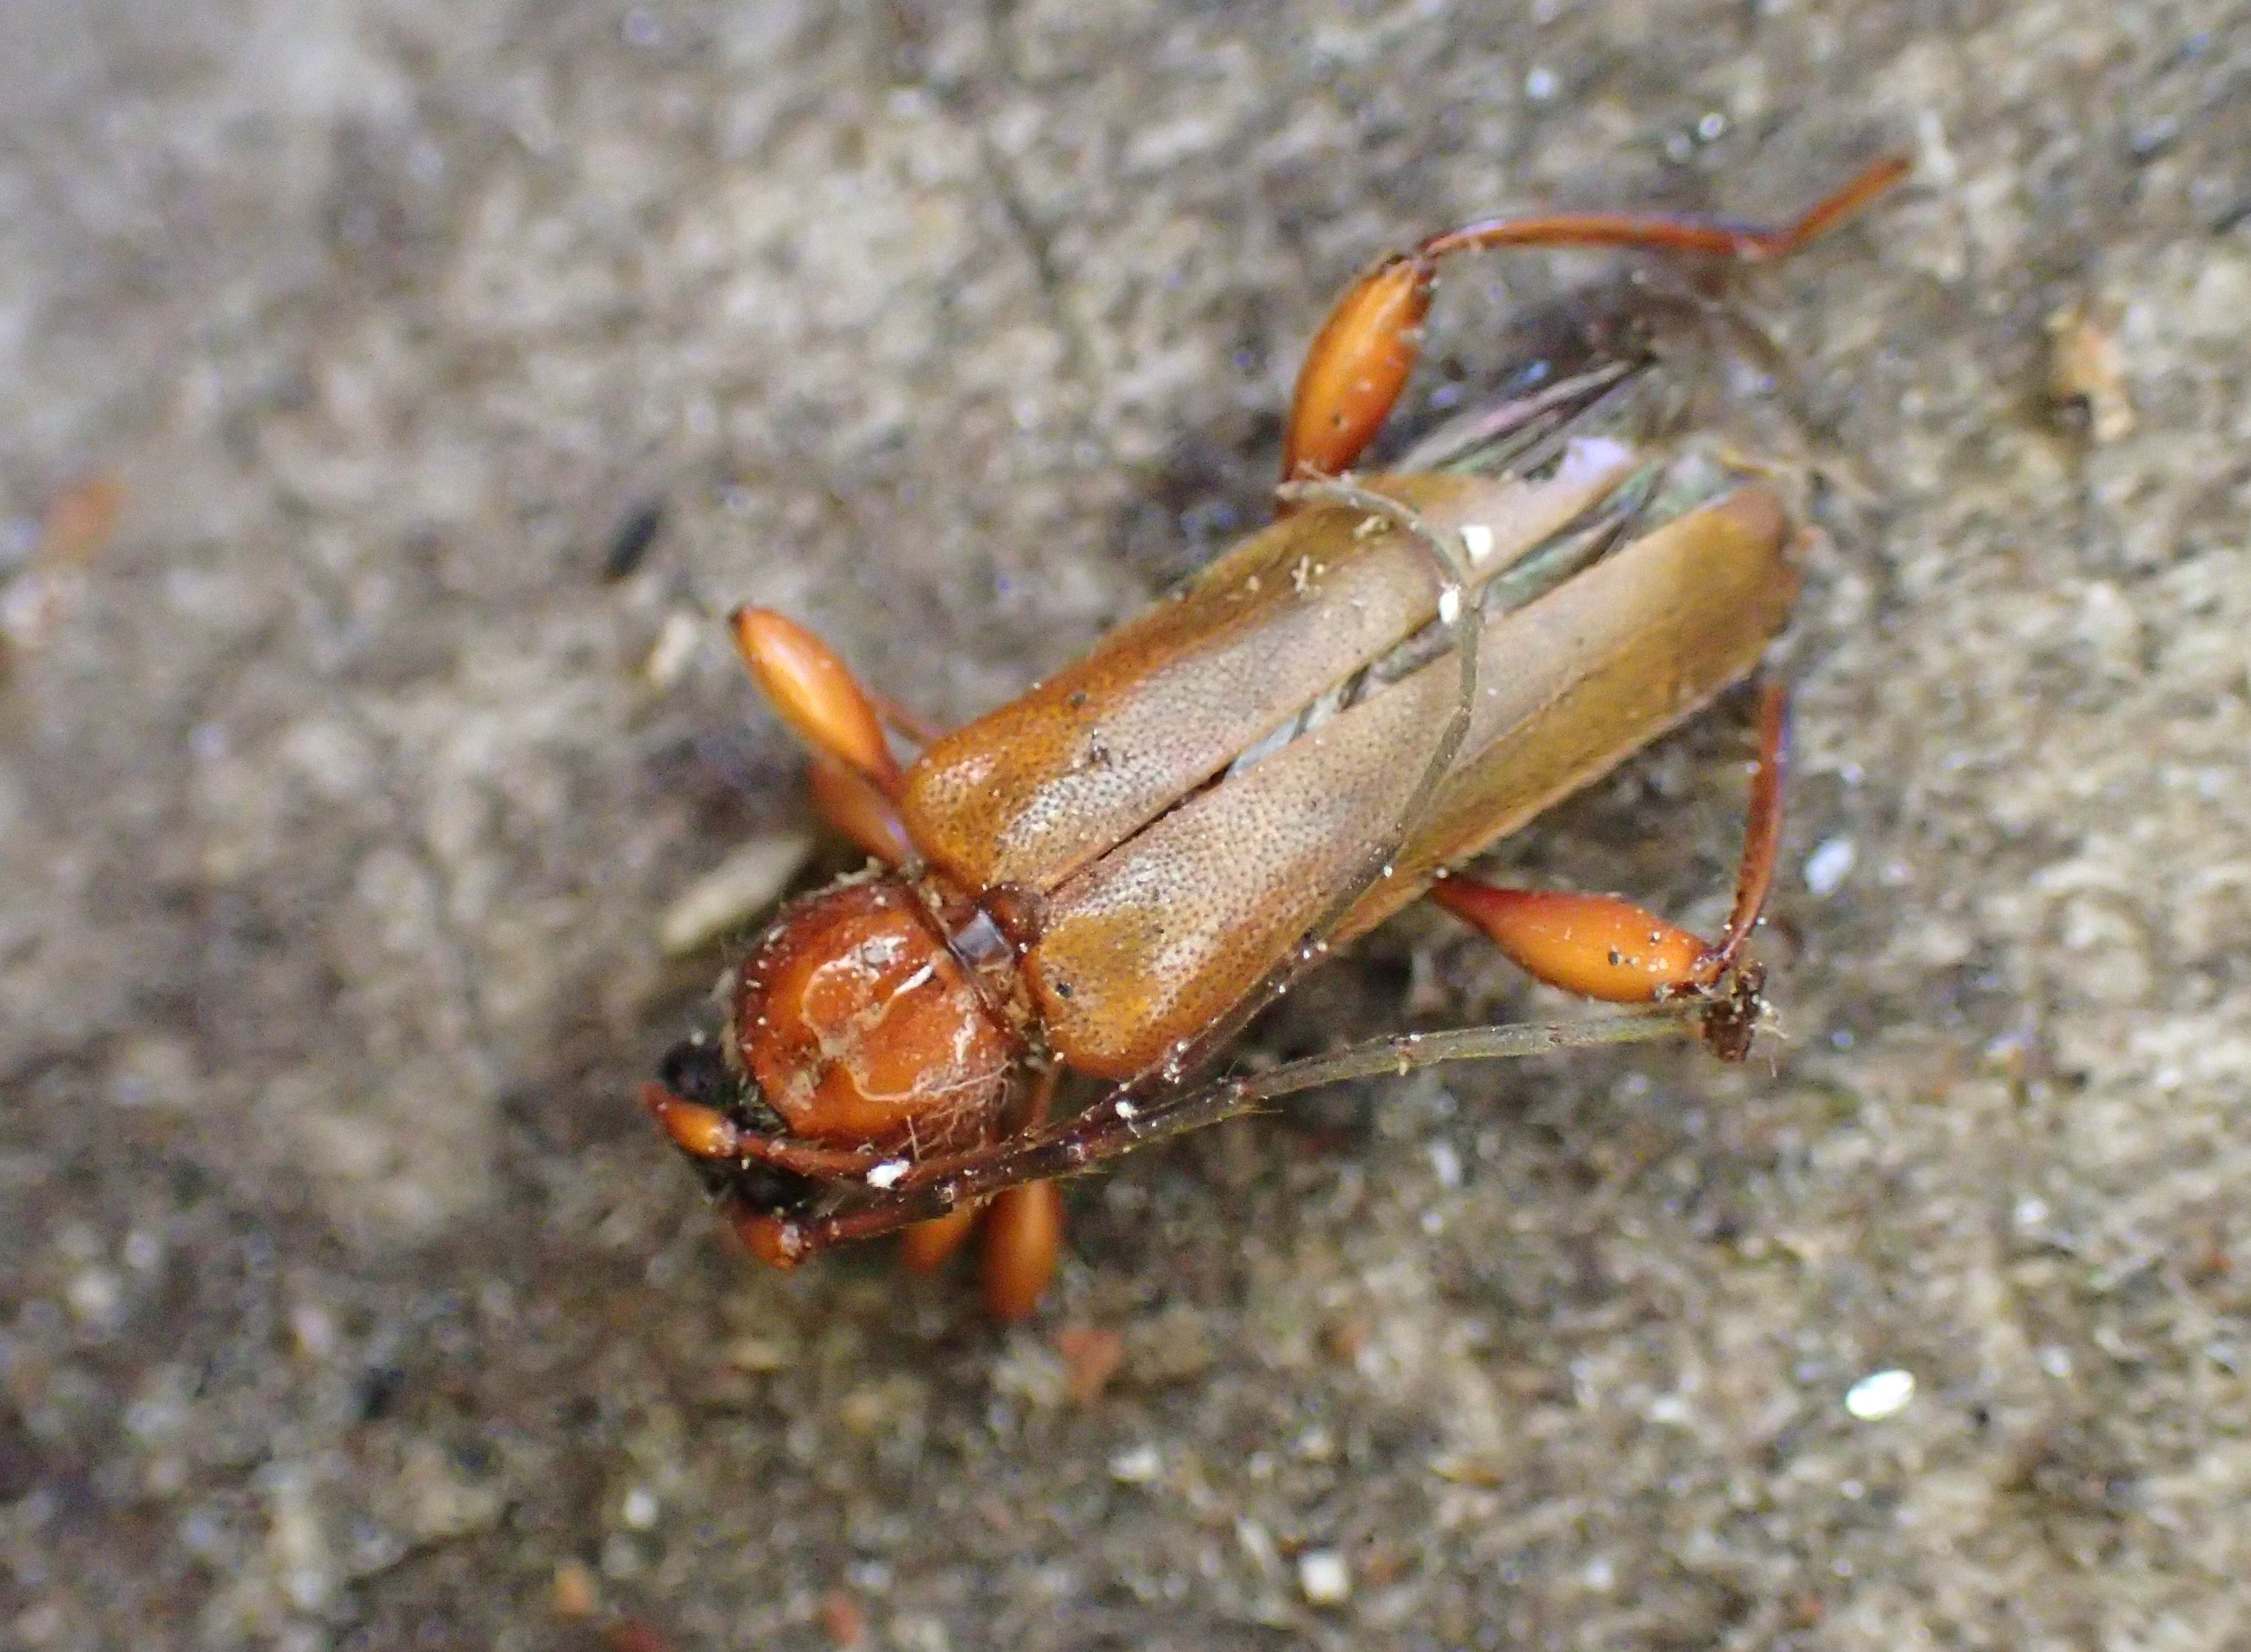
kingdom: Animalia
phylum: Arthropoda
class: Insecta
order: Coleoptera
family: Cerambycidae
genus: Phymatodes
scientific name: Phymatodes testaceus
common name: Bøgebuk
